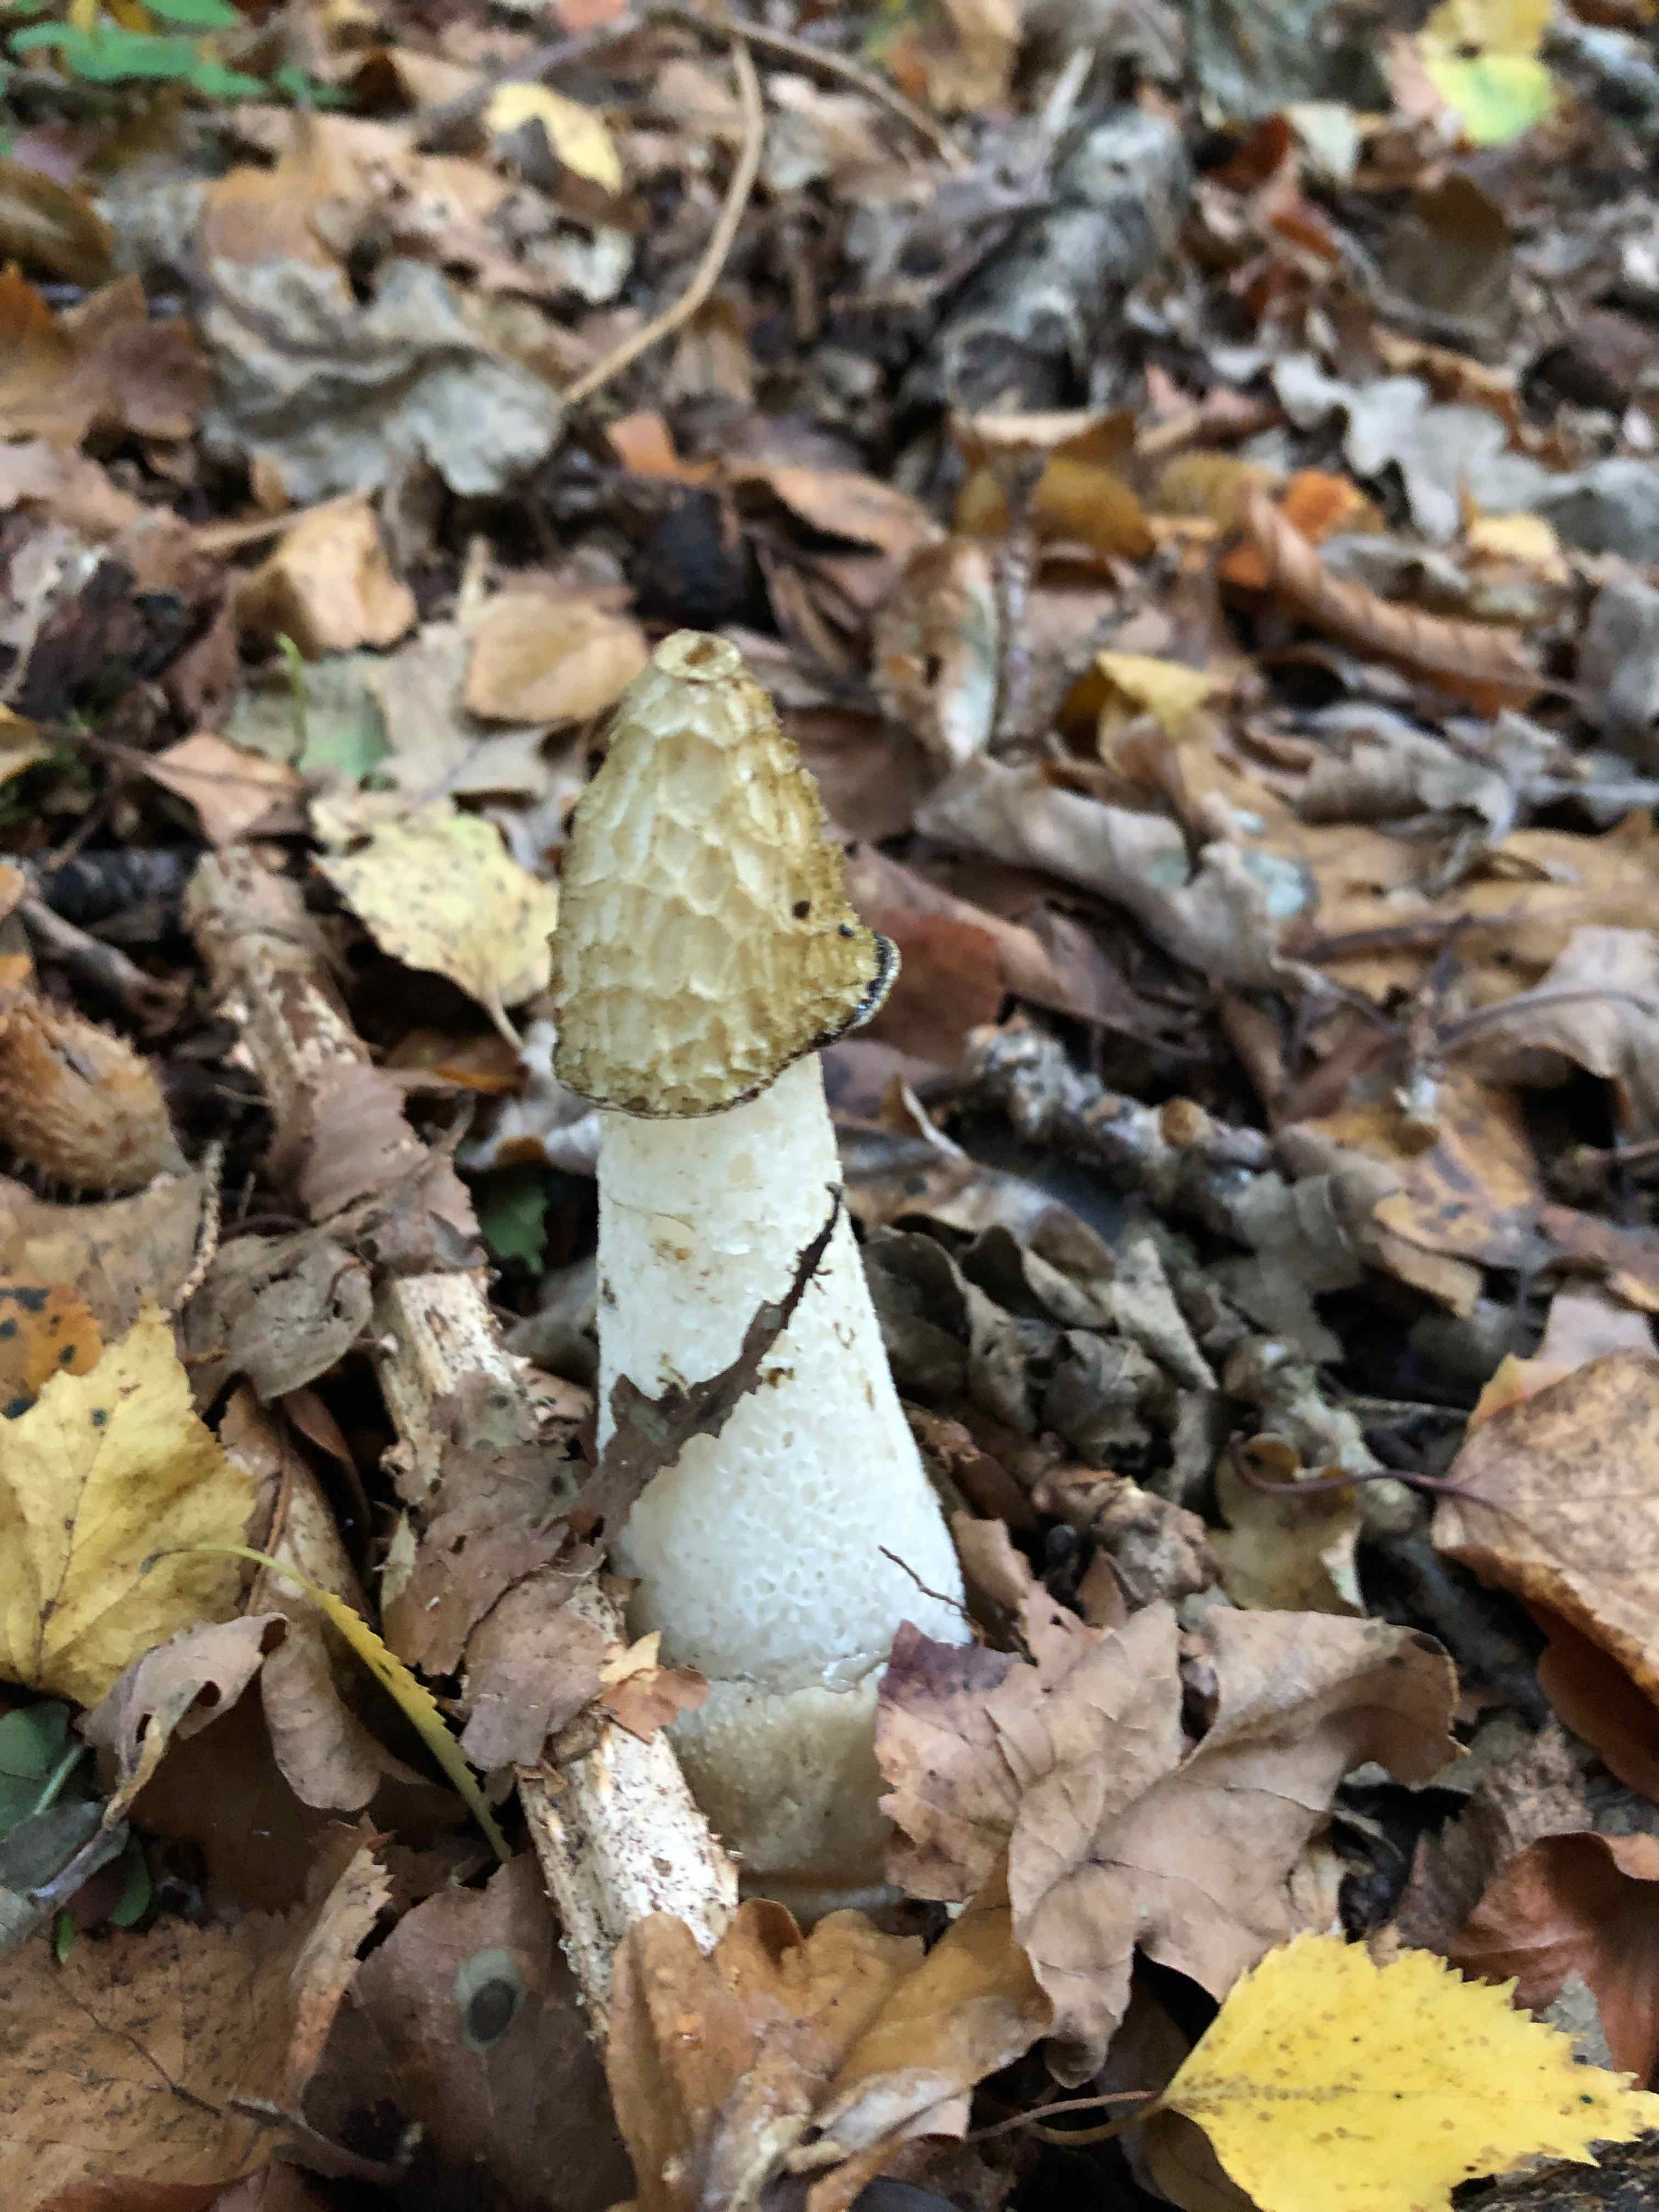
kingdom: Fungi
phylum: Basidiomycota
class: Agaricomycetes
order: Phallales
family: Phallaceae
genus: Phallus
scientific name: Phallus impudicus
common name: almindelig stinksvamp
